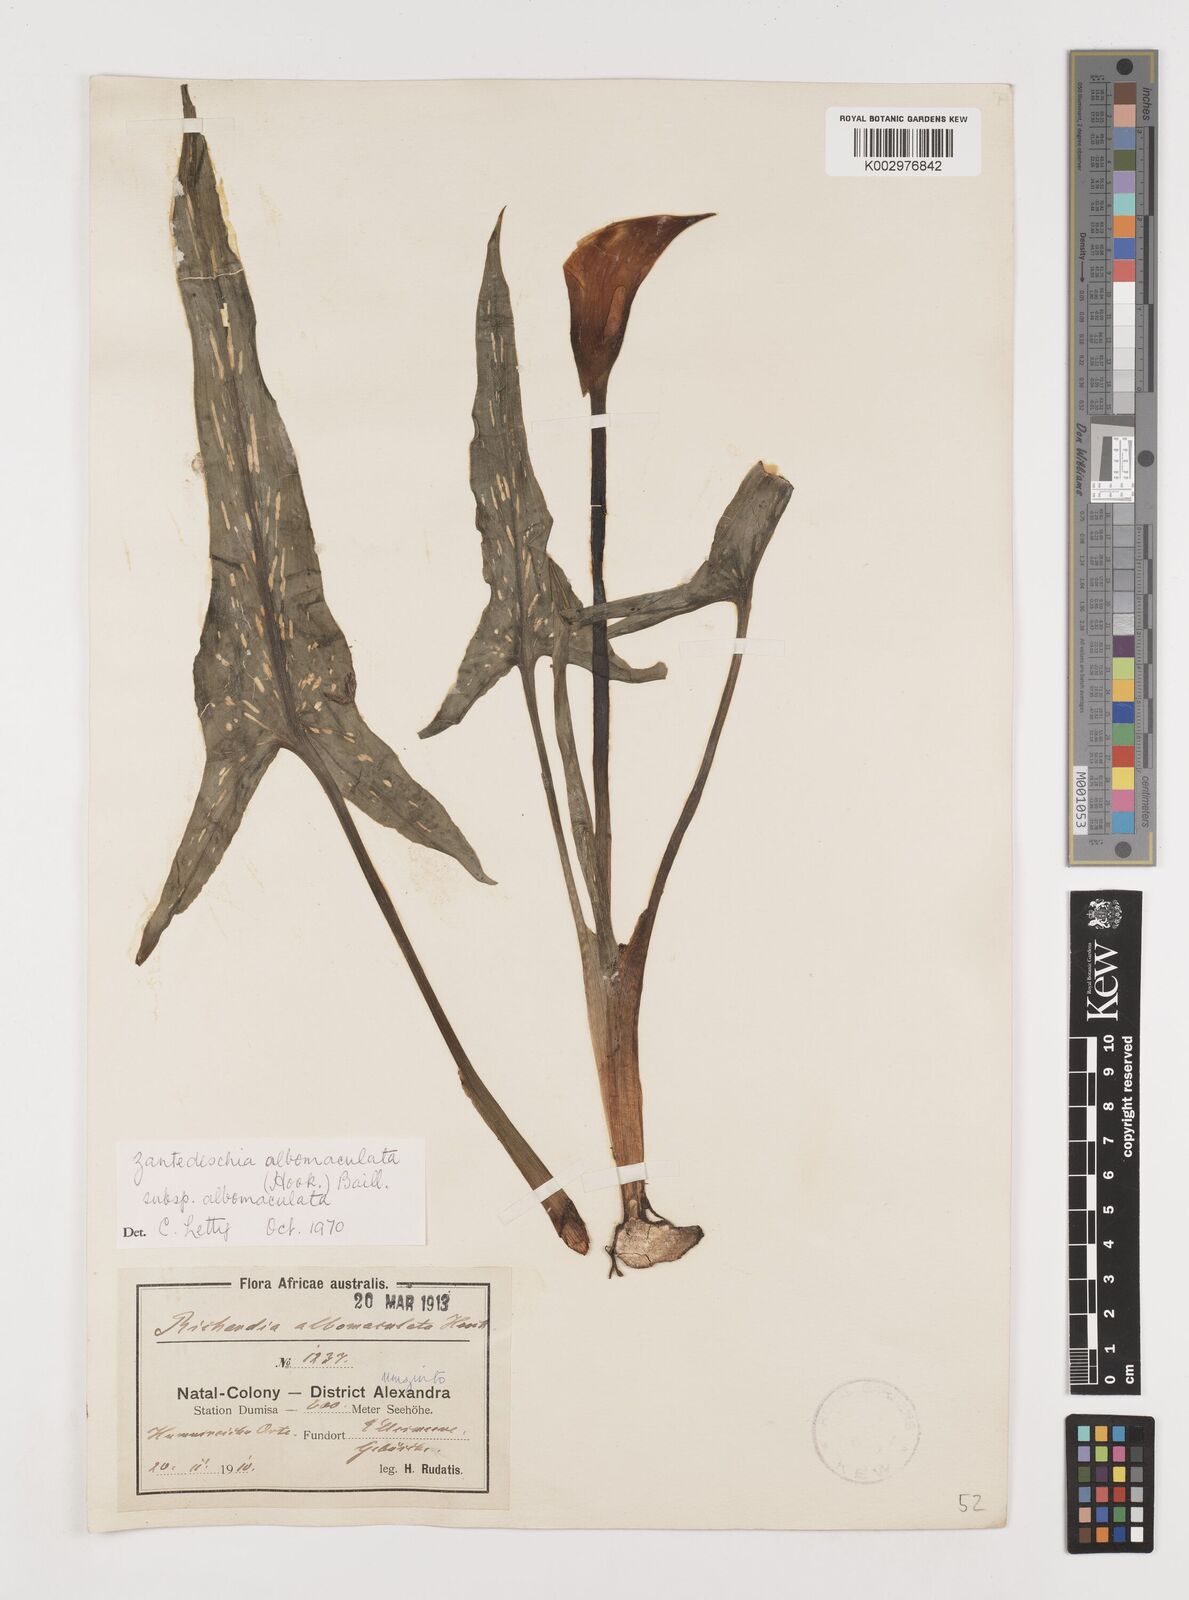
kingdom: Plantae
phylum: Tracheophyta
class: Liliopsida
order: Alismatales
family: Araceae
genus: Zantedeschia
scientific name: Zantedeschia albomaculata
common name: Spotted calla lily
